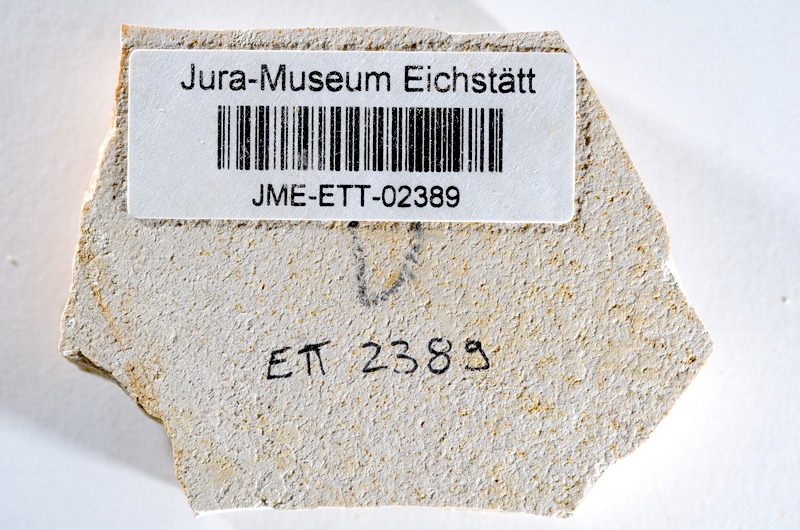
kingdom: Animalia
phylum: Chordata
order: Salmoniformes
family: Orthogonikleithridae
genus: Orthogonikleithrus
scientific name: Orthogonikleithrus hoelli
